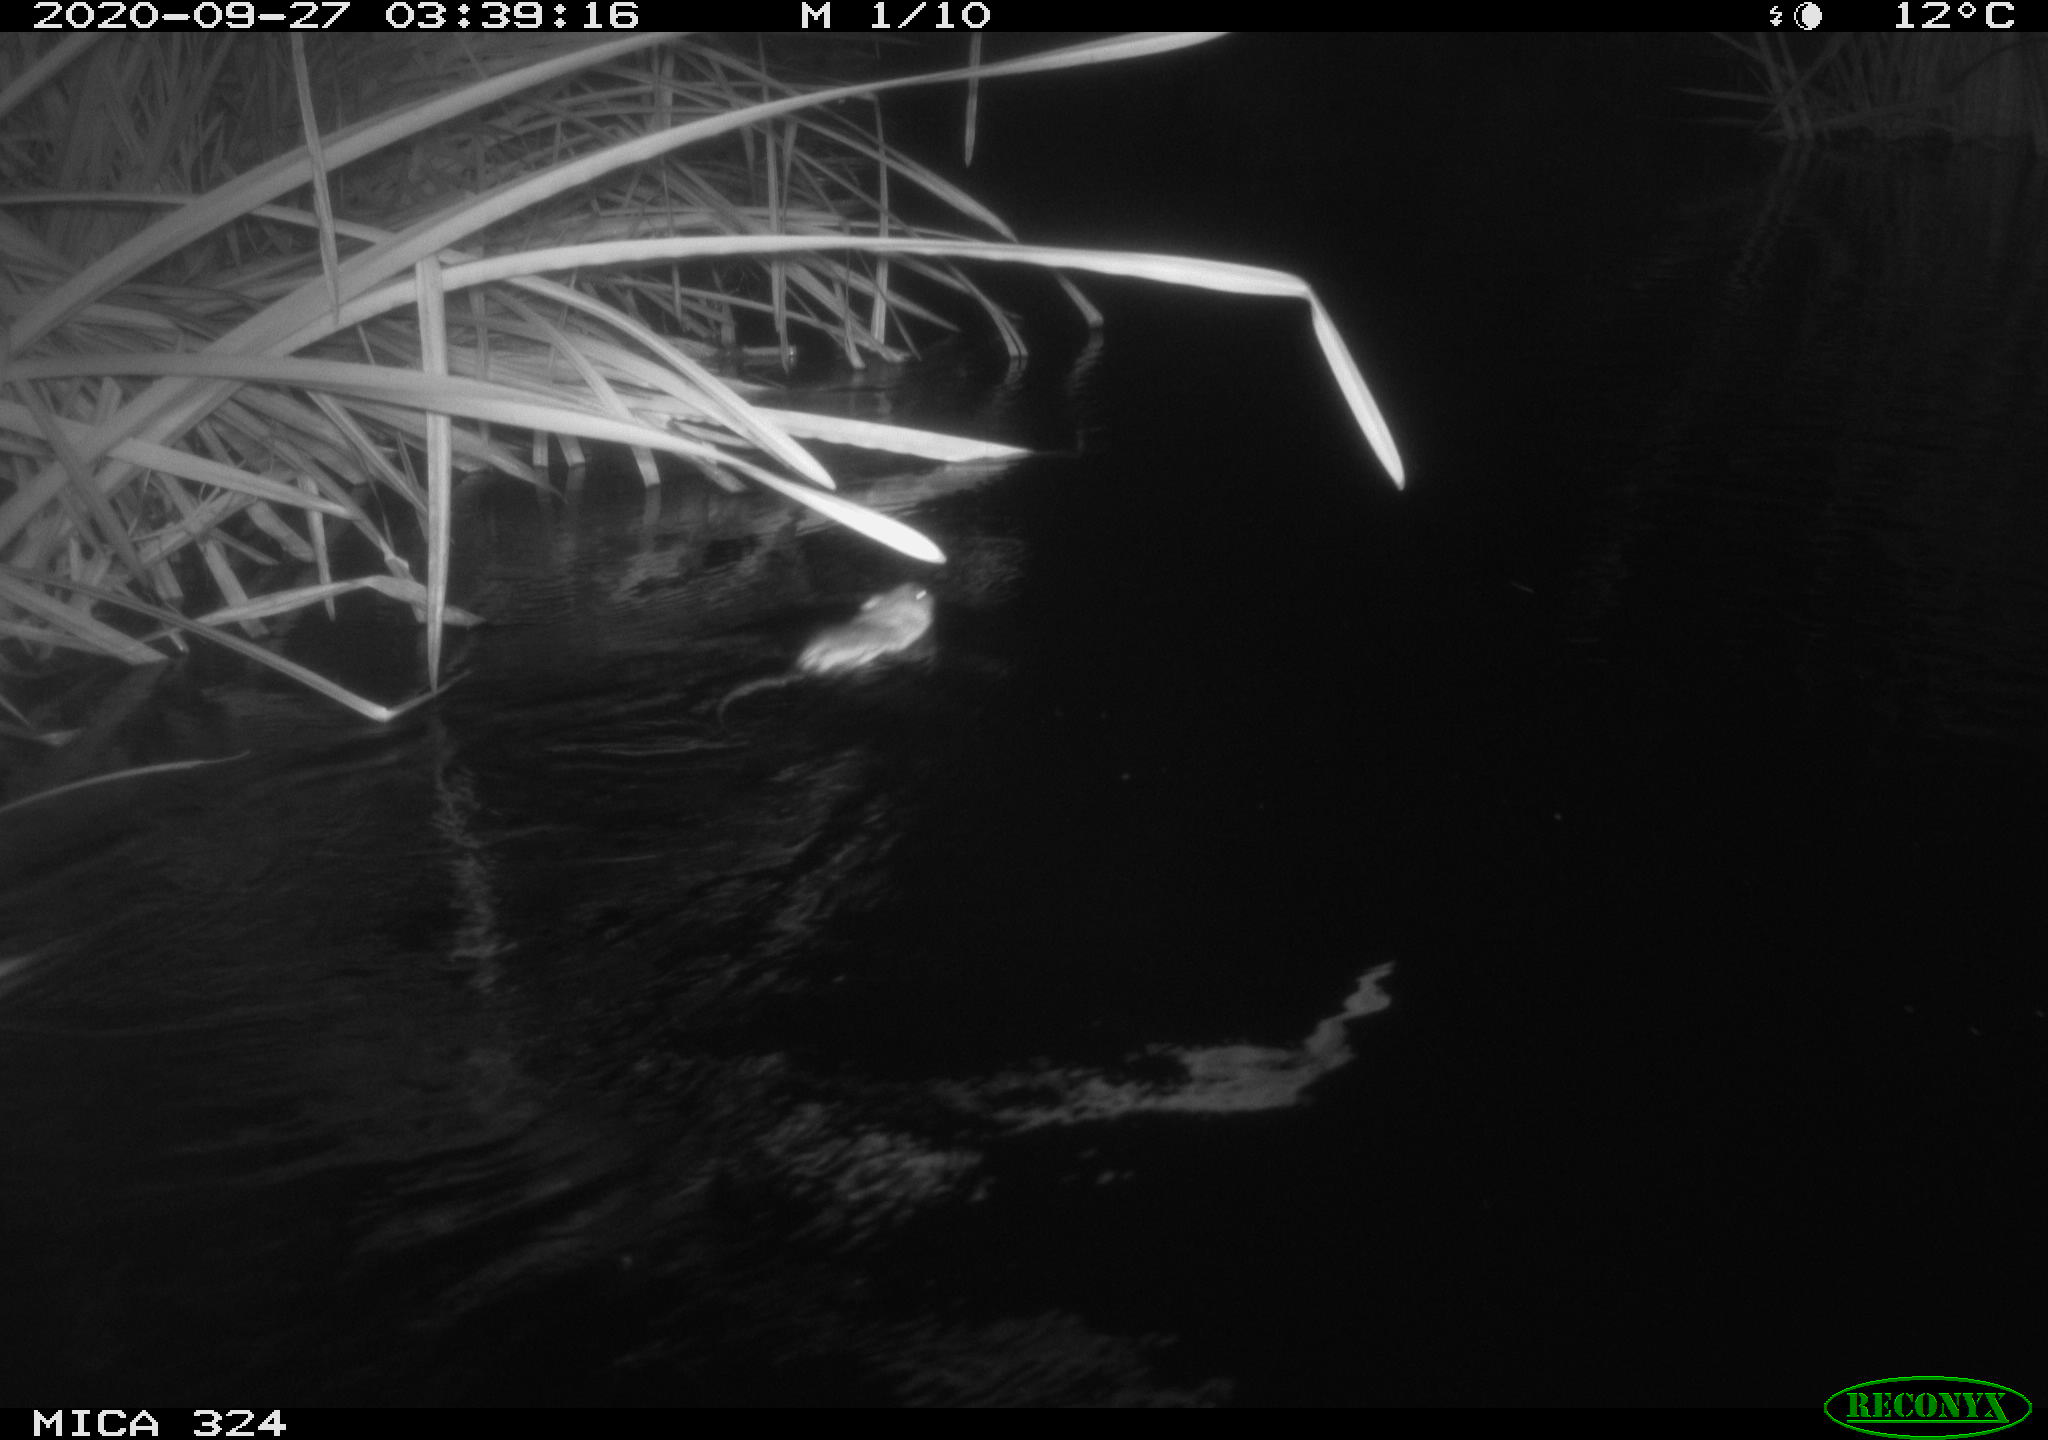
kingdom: Animalia
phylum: Chordata
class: Mammalia
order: Rodentia
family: Cricetidae
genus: Ondatra
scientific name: Ondatra zibethicus
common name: Muskrat
